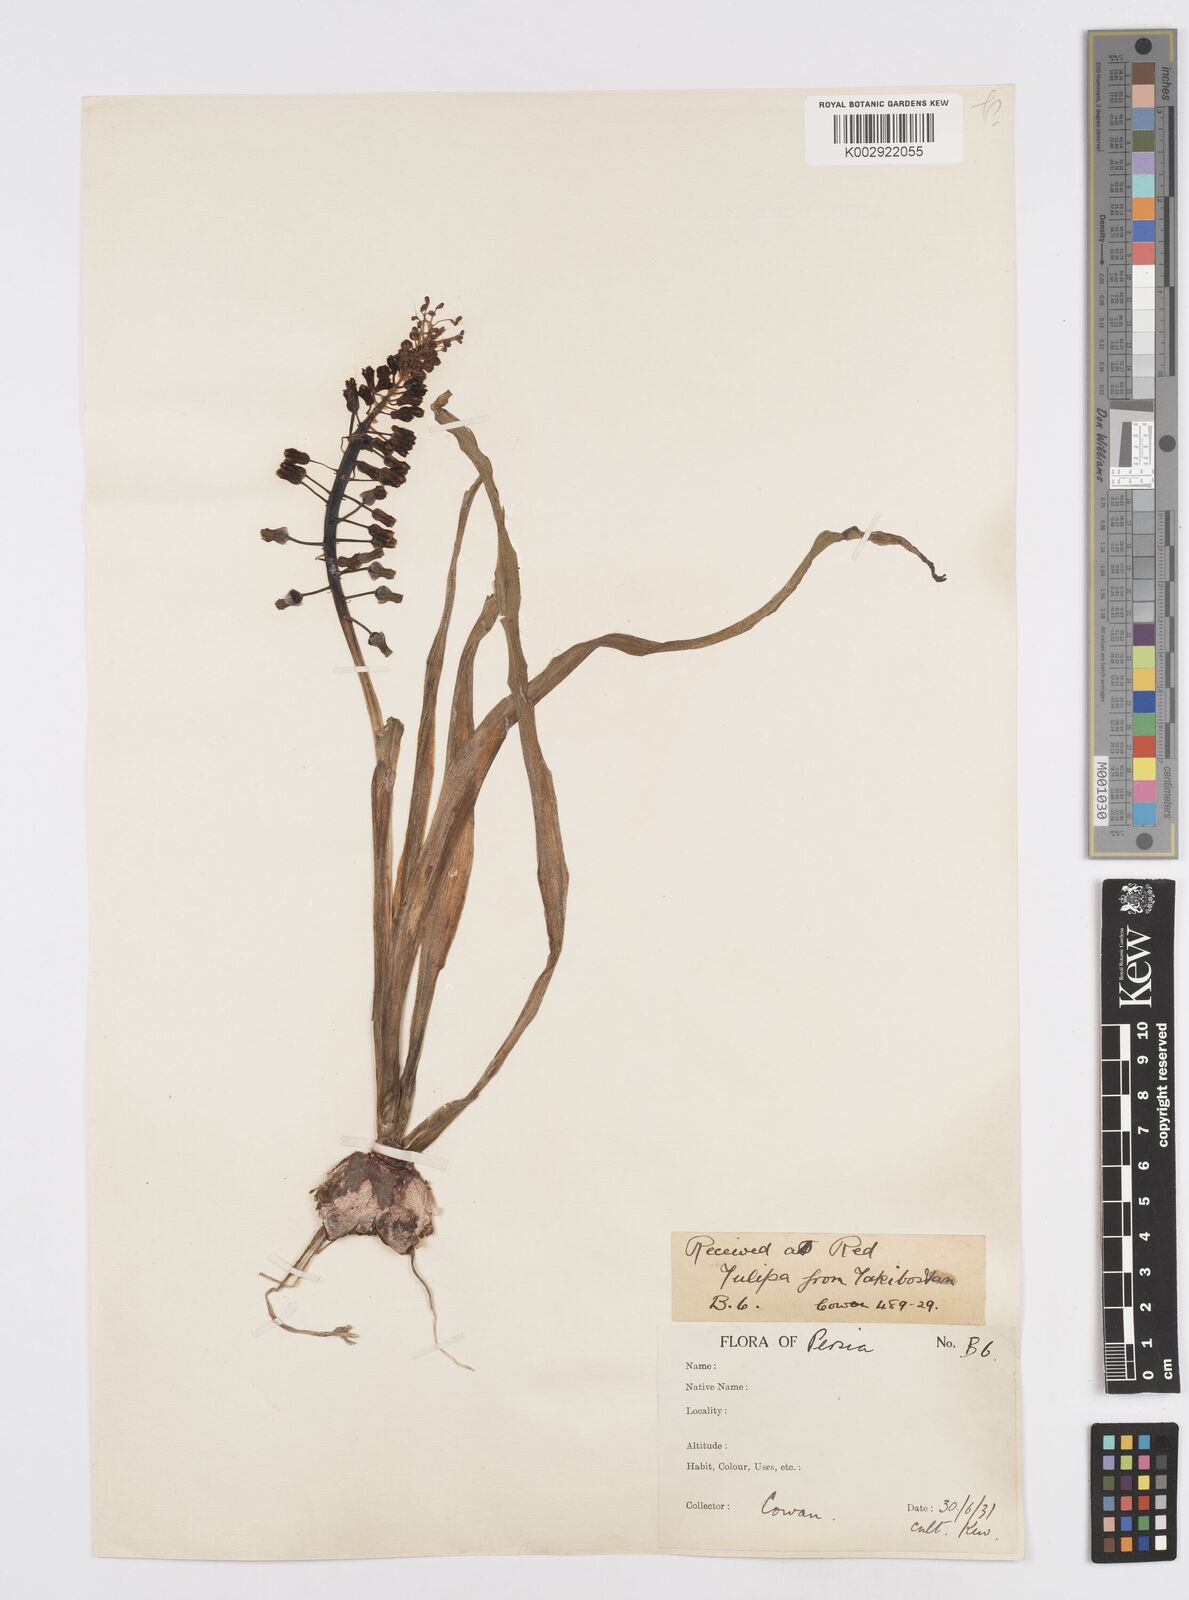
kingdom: Animalia
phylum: Mollusca
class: Cephalopoda
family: Neocomitidae
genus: Leopoldia
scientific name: Leopoldia
